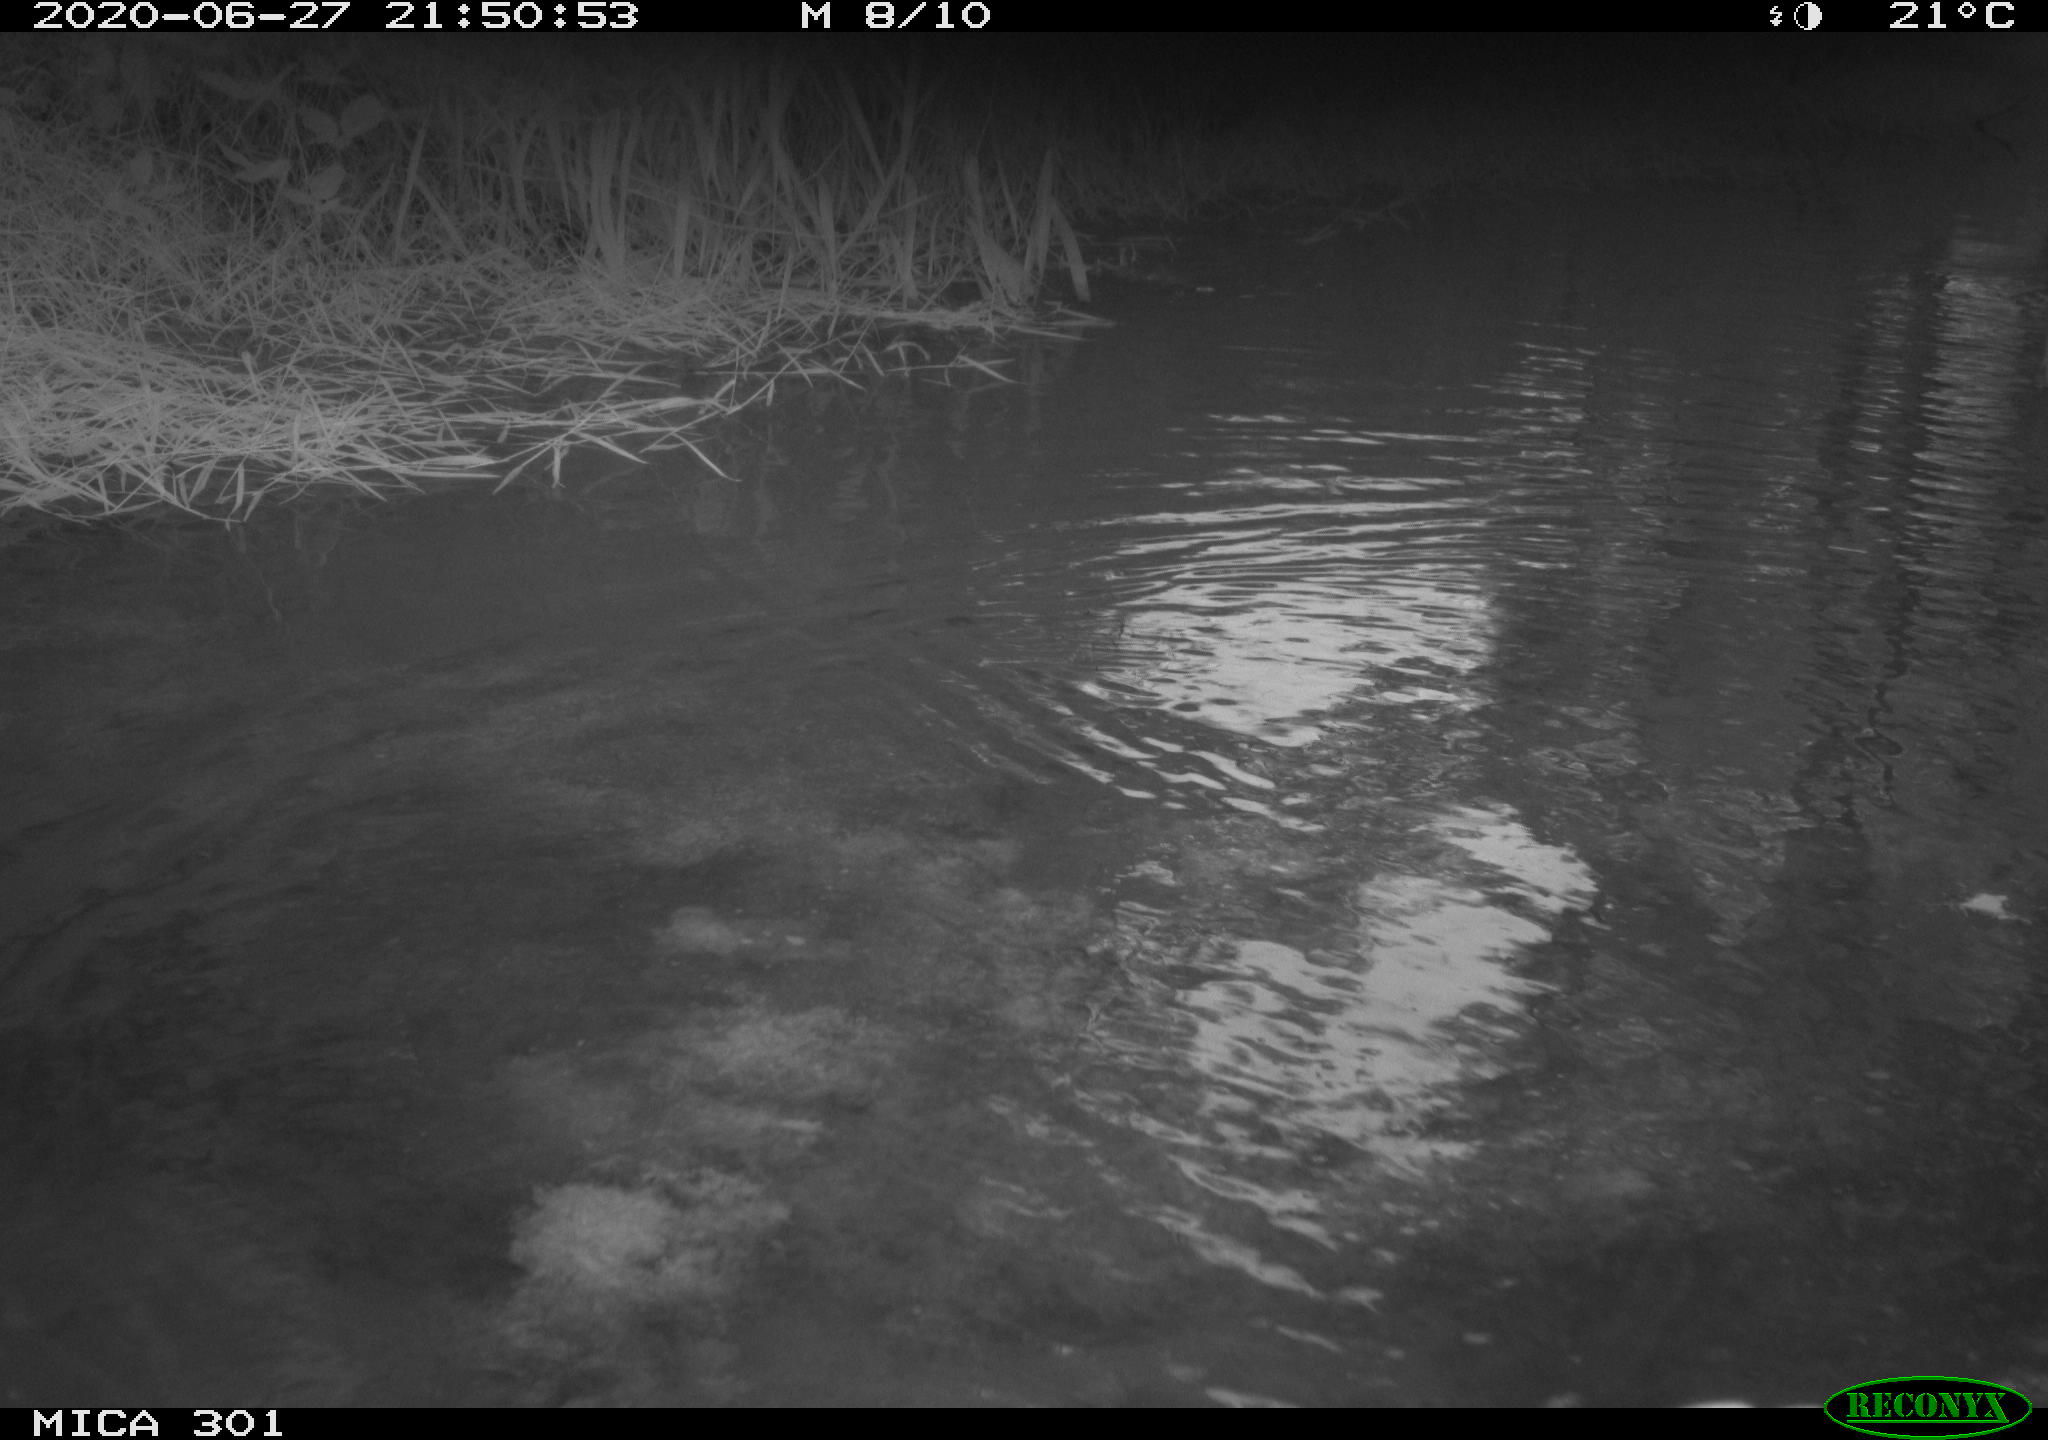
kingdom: Animalia
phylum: Chordata
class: Aves
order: Anseriformes
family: Anatidae
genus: Aix
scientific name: Aix galericulata
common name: Mandarin duck
